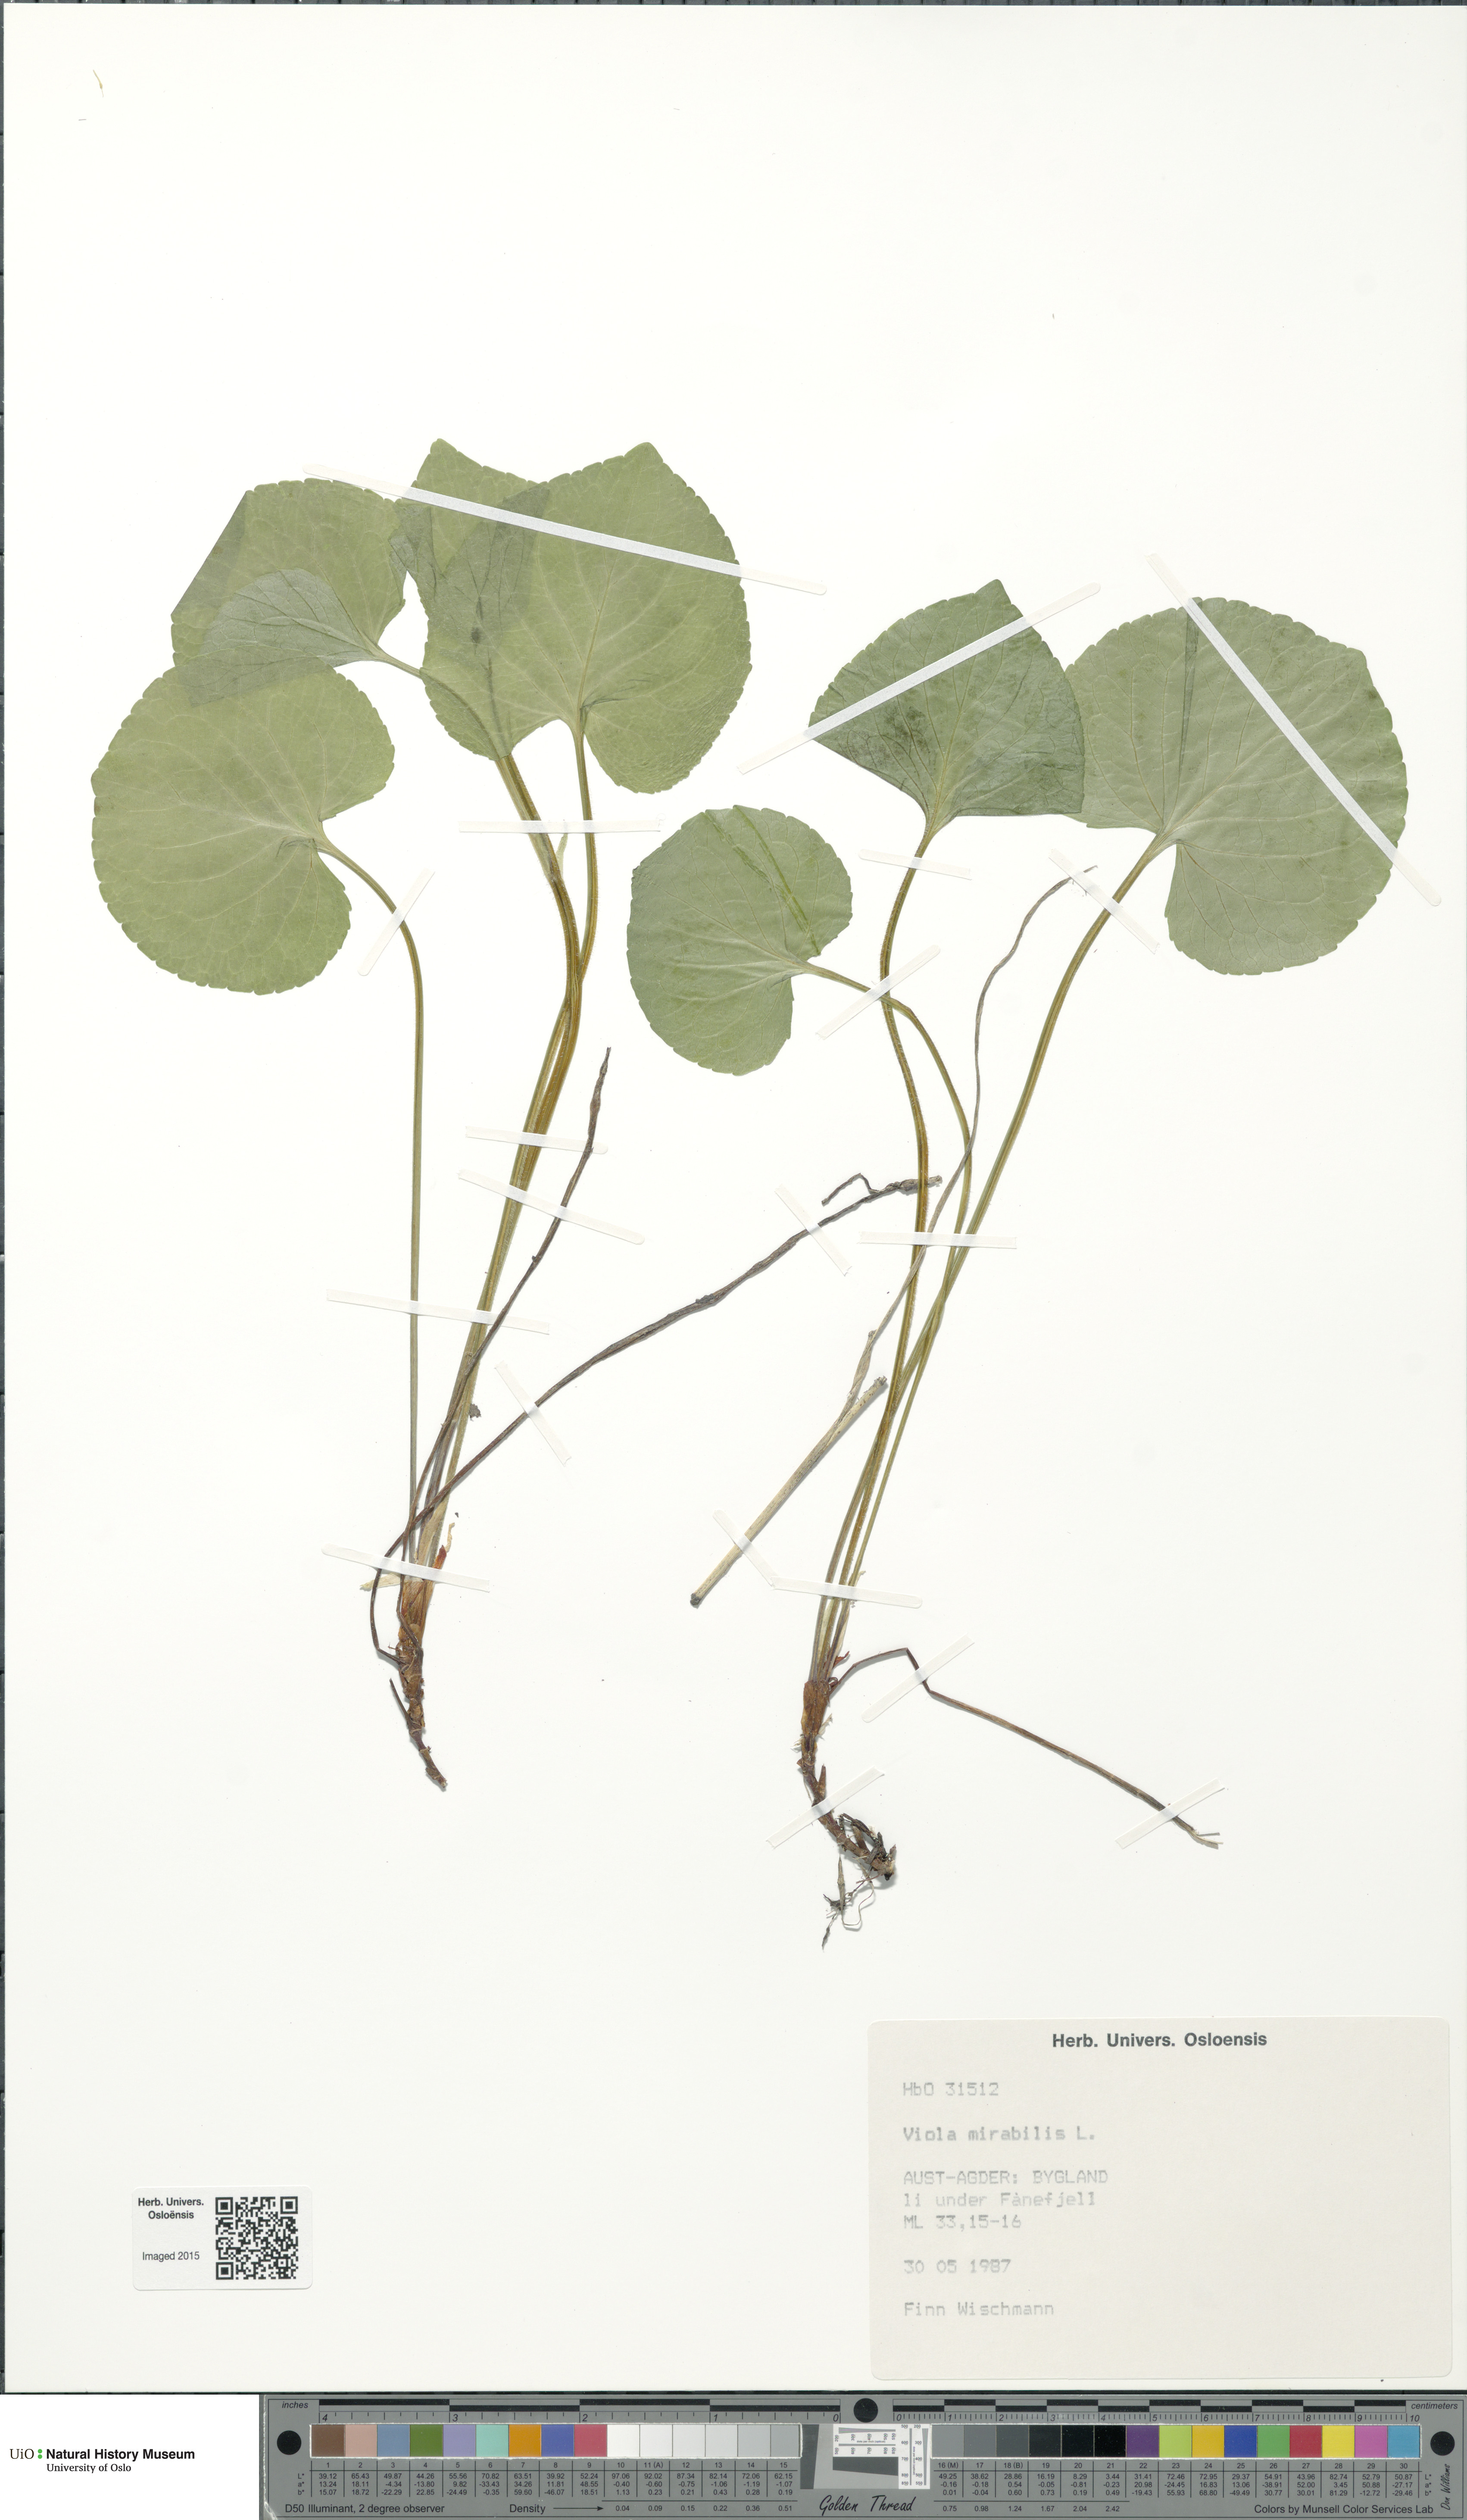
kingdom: Plantae
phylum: Tracheophyta
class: Magnoliopsida
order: Malpighiales
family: Violaceae
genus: Viola
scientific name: Viola mirabilis
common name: Wonder violet
